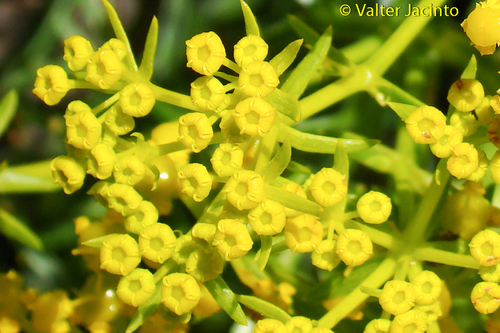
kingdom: Plantae
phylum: Tracheophyta
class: Magnoliopsida
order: Apiales
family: Apiaceae
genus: Thapsia
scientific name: Thapsia transtagana
